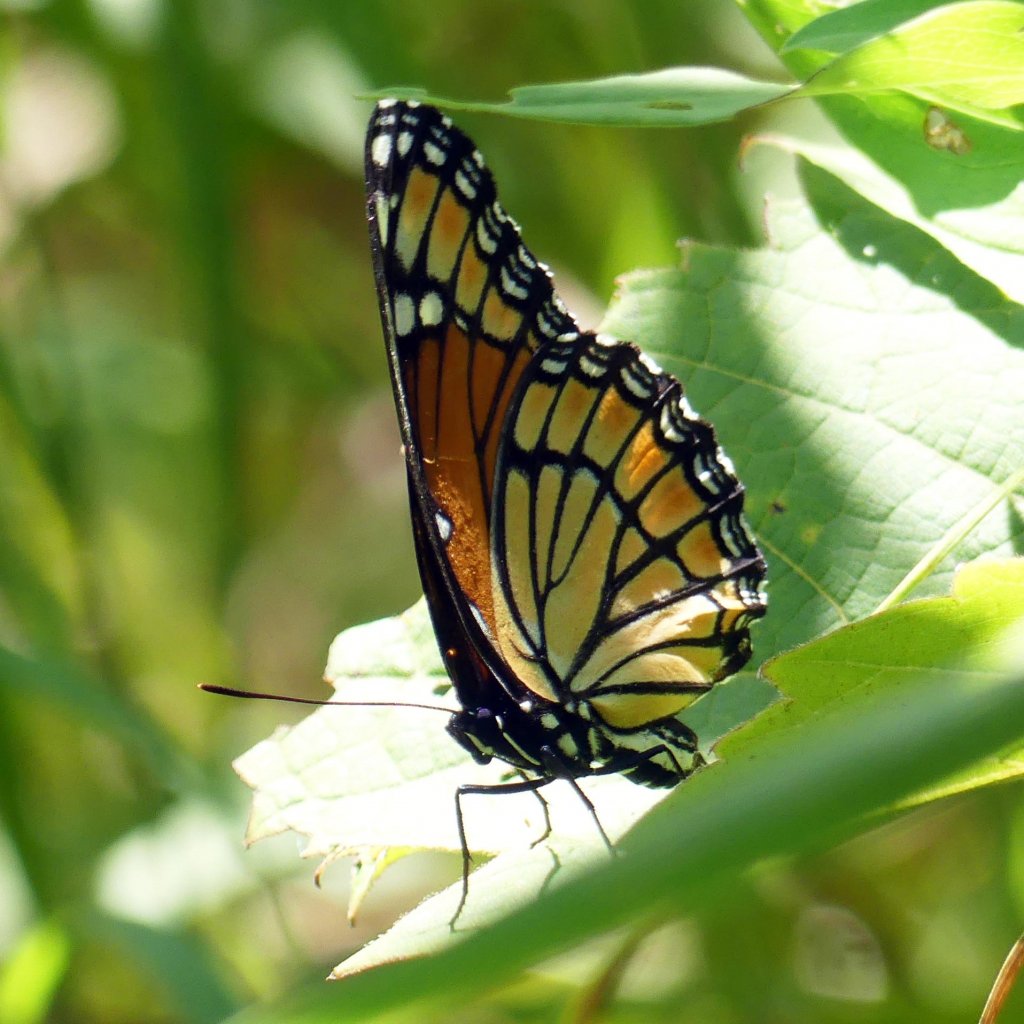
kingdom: Animalia
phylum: Arthropoda
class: Insecta
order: Lepidoptera
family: Nymphalidae
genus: Limenitis
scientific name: Limenitis archippus
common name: Viceroy
